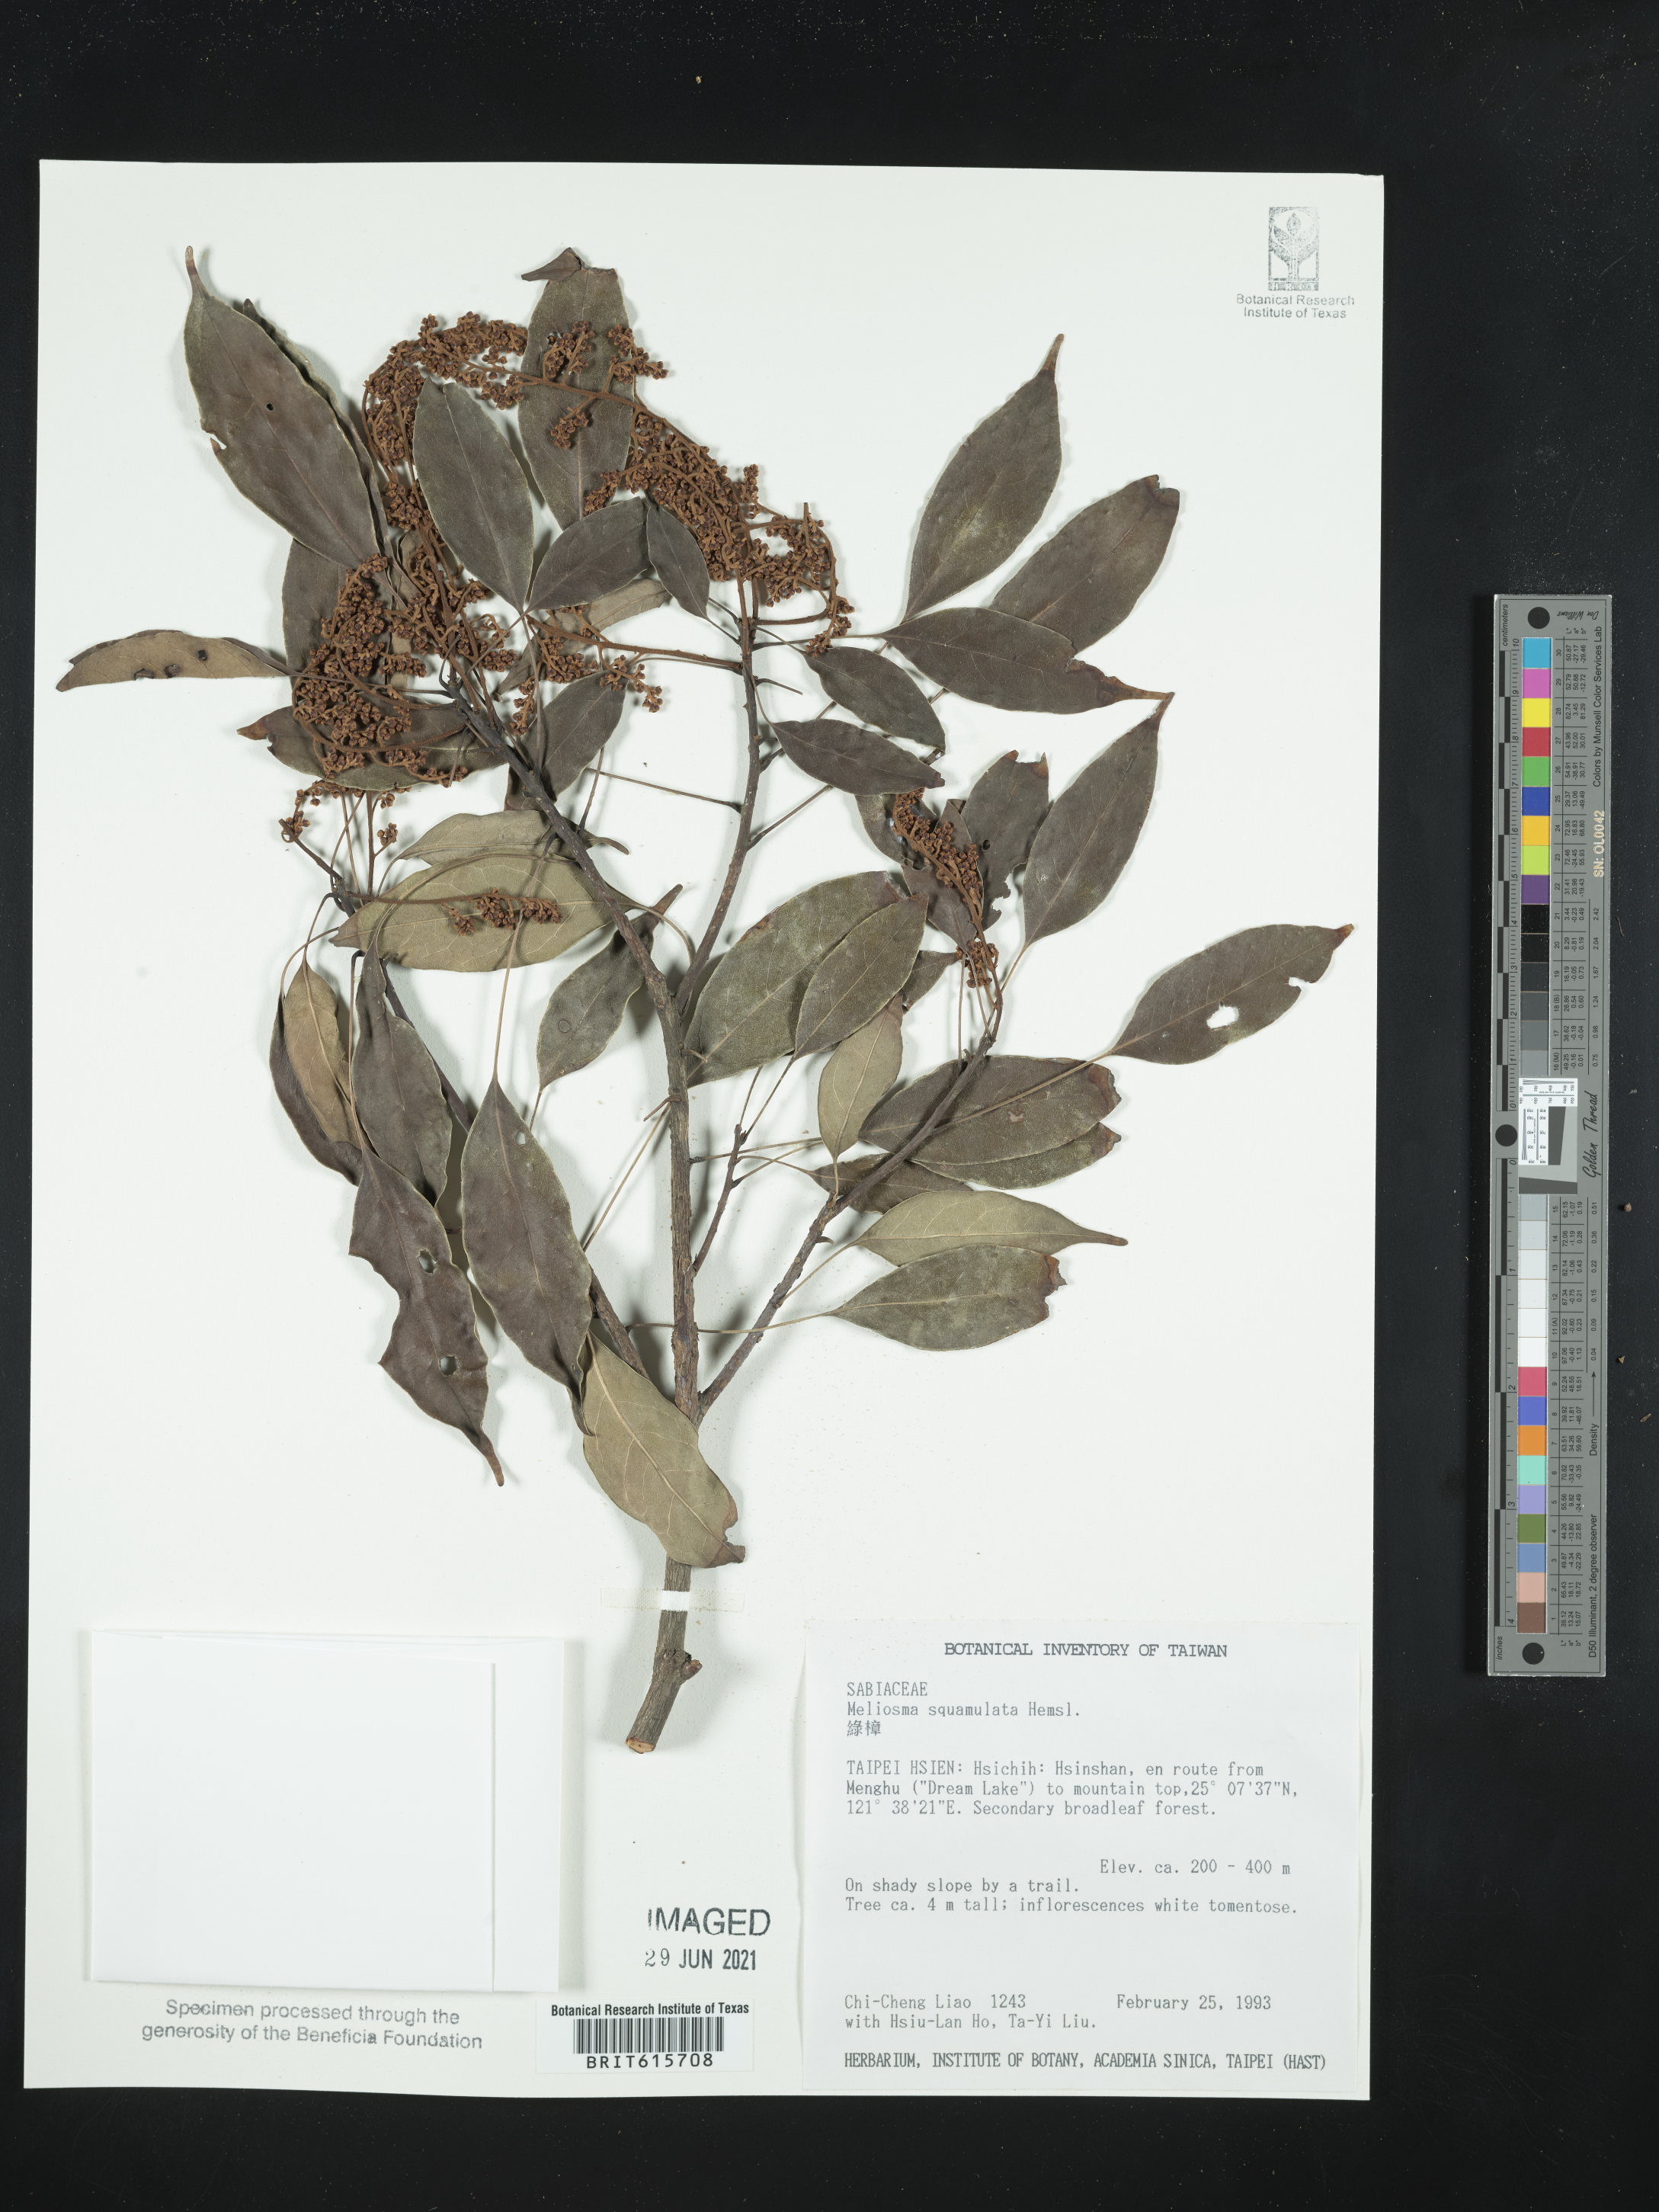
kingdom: Plantae
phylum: Tracheophyta
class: Magnoliopsida
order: Proteales
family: Sabiaceae
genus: Meliosma
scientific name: Meliosma squamulata
